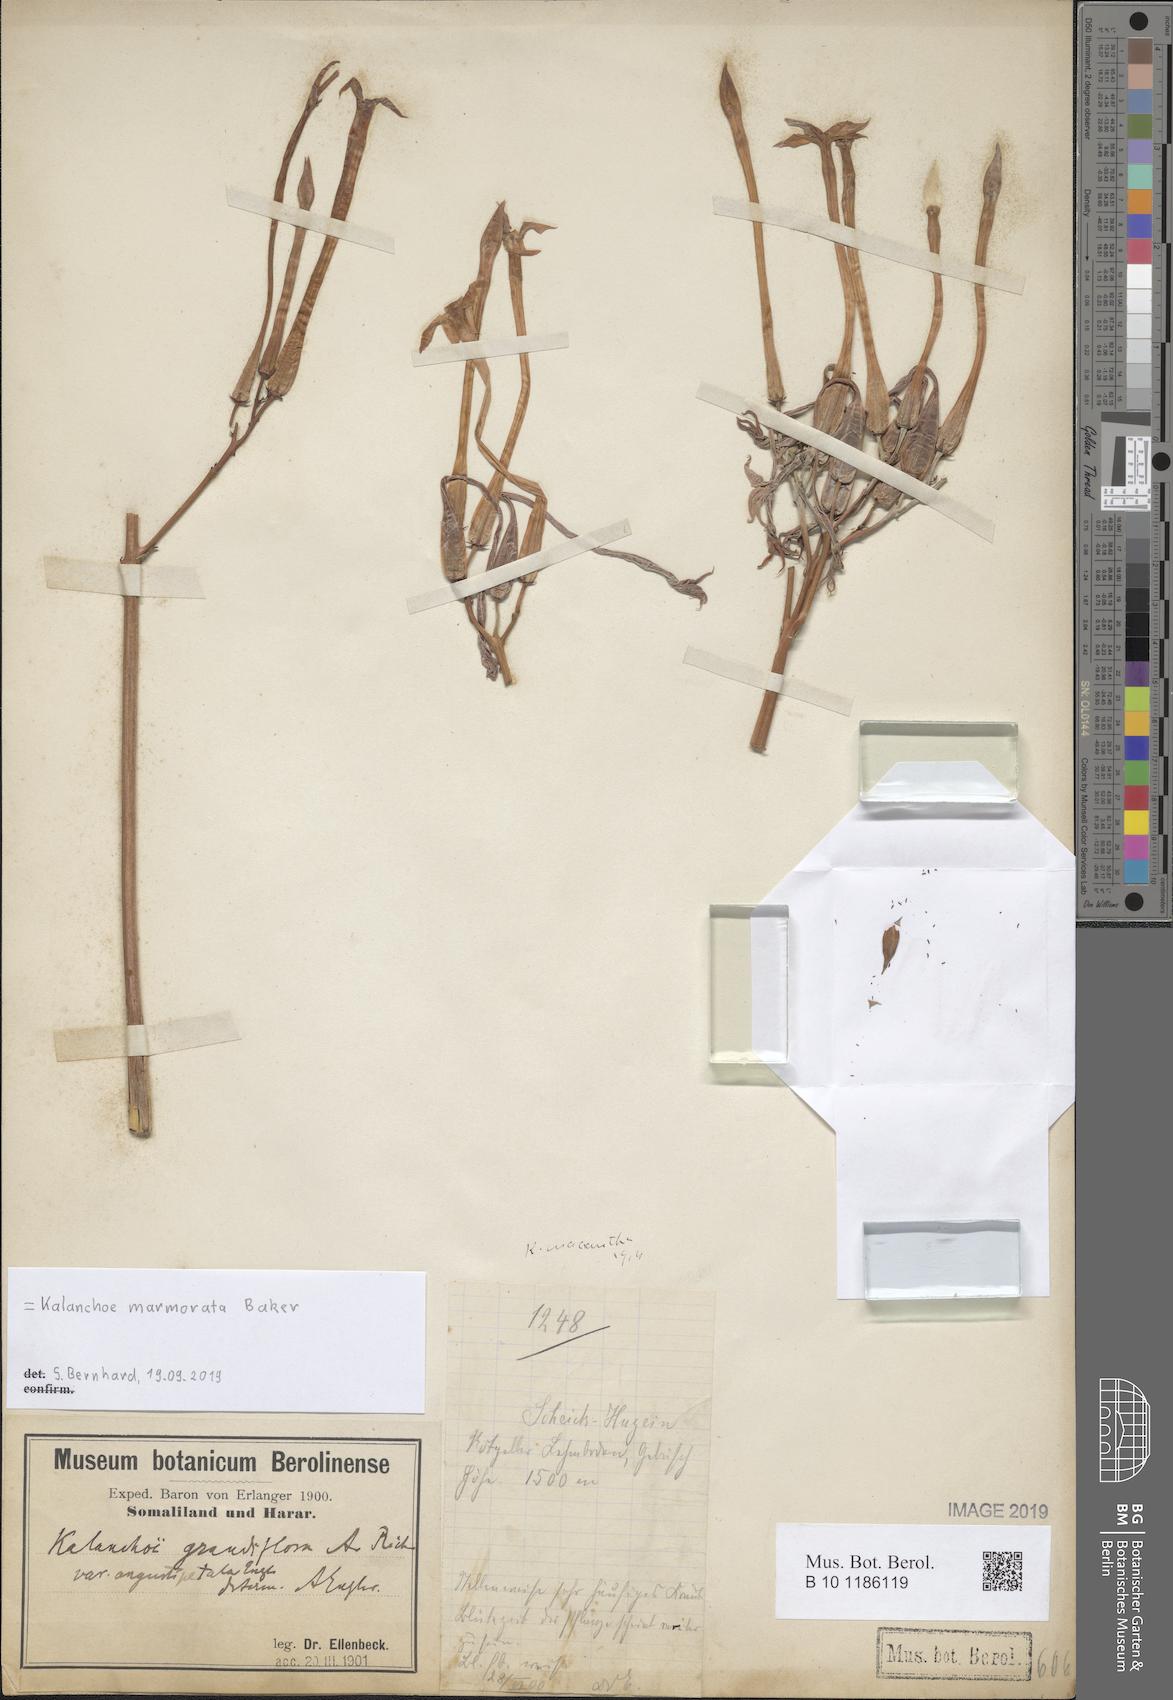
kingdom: Plantae
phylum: Tracheophyta
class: Magnoliopsida
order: Saxifragales
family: Crassulaceae
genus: Kalanchoe
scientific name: Kalanchoe marmorata
